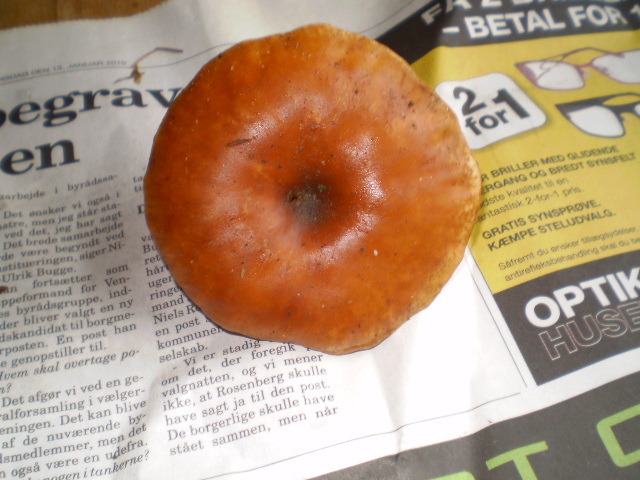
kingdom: Fungi
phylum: Basidiomycota
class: Agaricomycetes
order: Agaricales
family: Tricholomataceae
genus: Paralepista
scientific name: Paralepista flaccida
